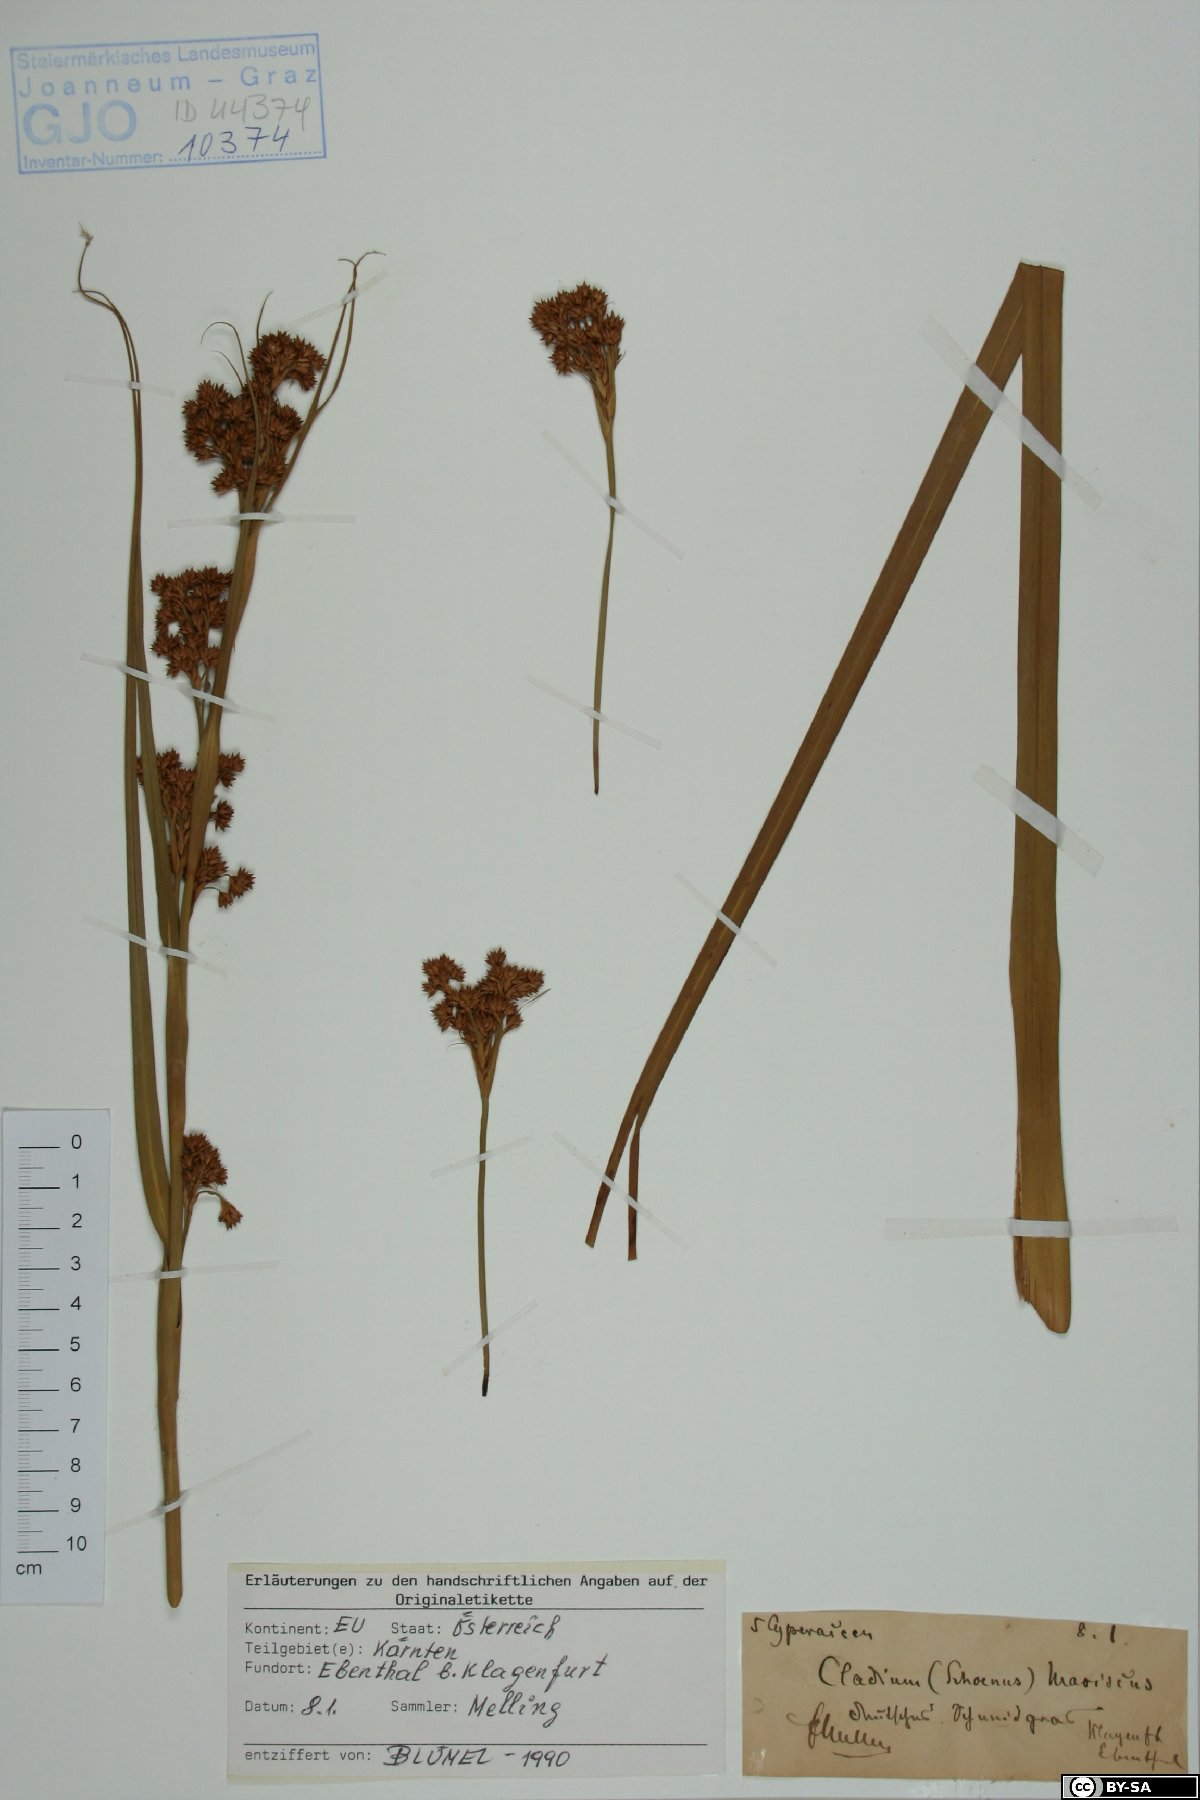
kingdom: Plantae
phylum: Tracheophyta
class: Liliopsida
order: Poales
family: Cyperaceae
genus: Cladium
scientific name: Cladium mariscus
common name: Great fen-sedge
